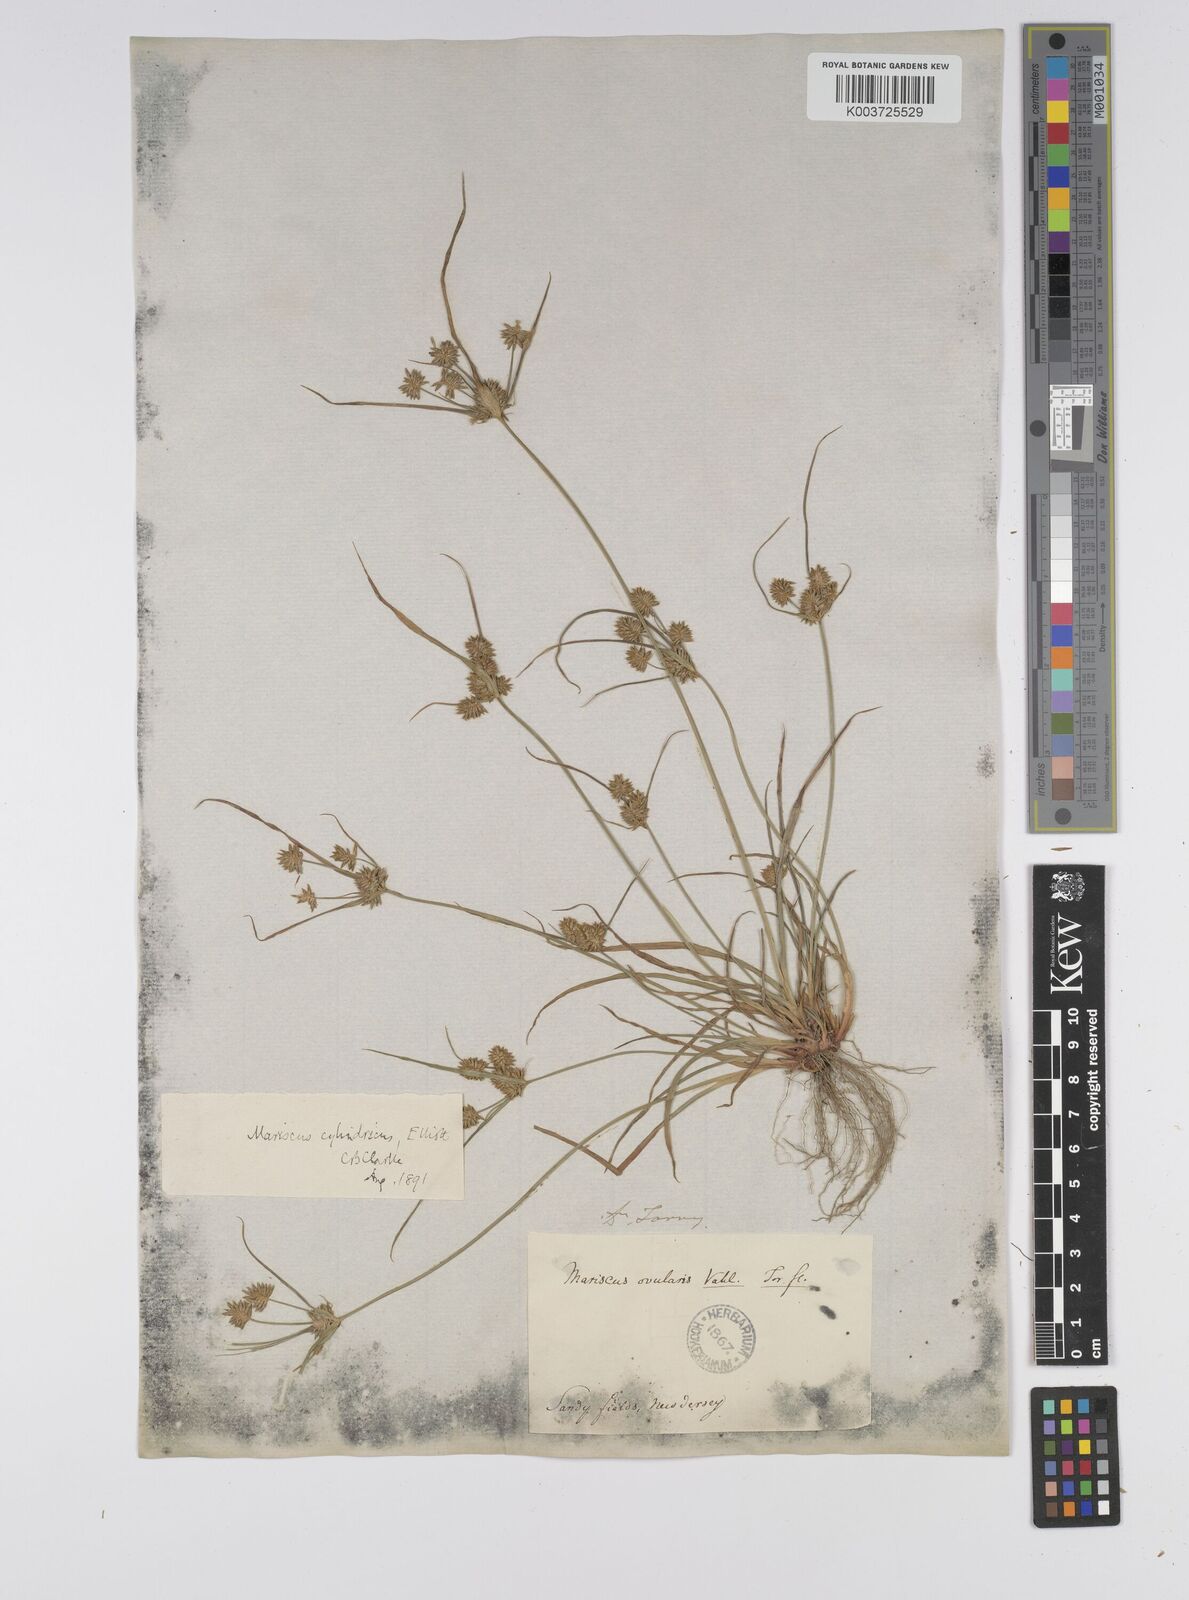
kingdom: Plantae
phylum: Tracheophyta
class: Liliopsida
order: Poales
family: Cyperaceae
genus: Cyperus
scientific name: Cyperus retrorsus
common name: Pinebarren flat sedge
